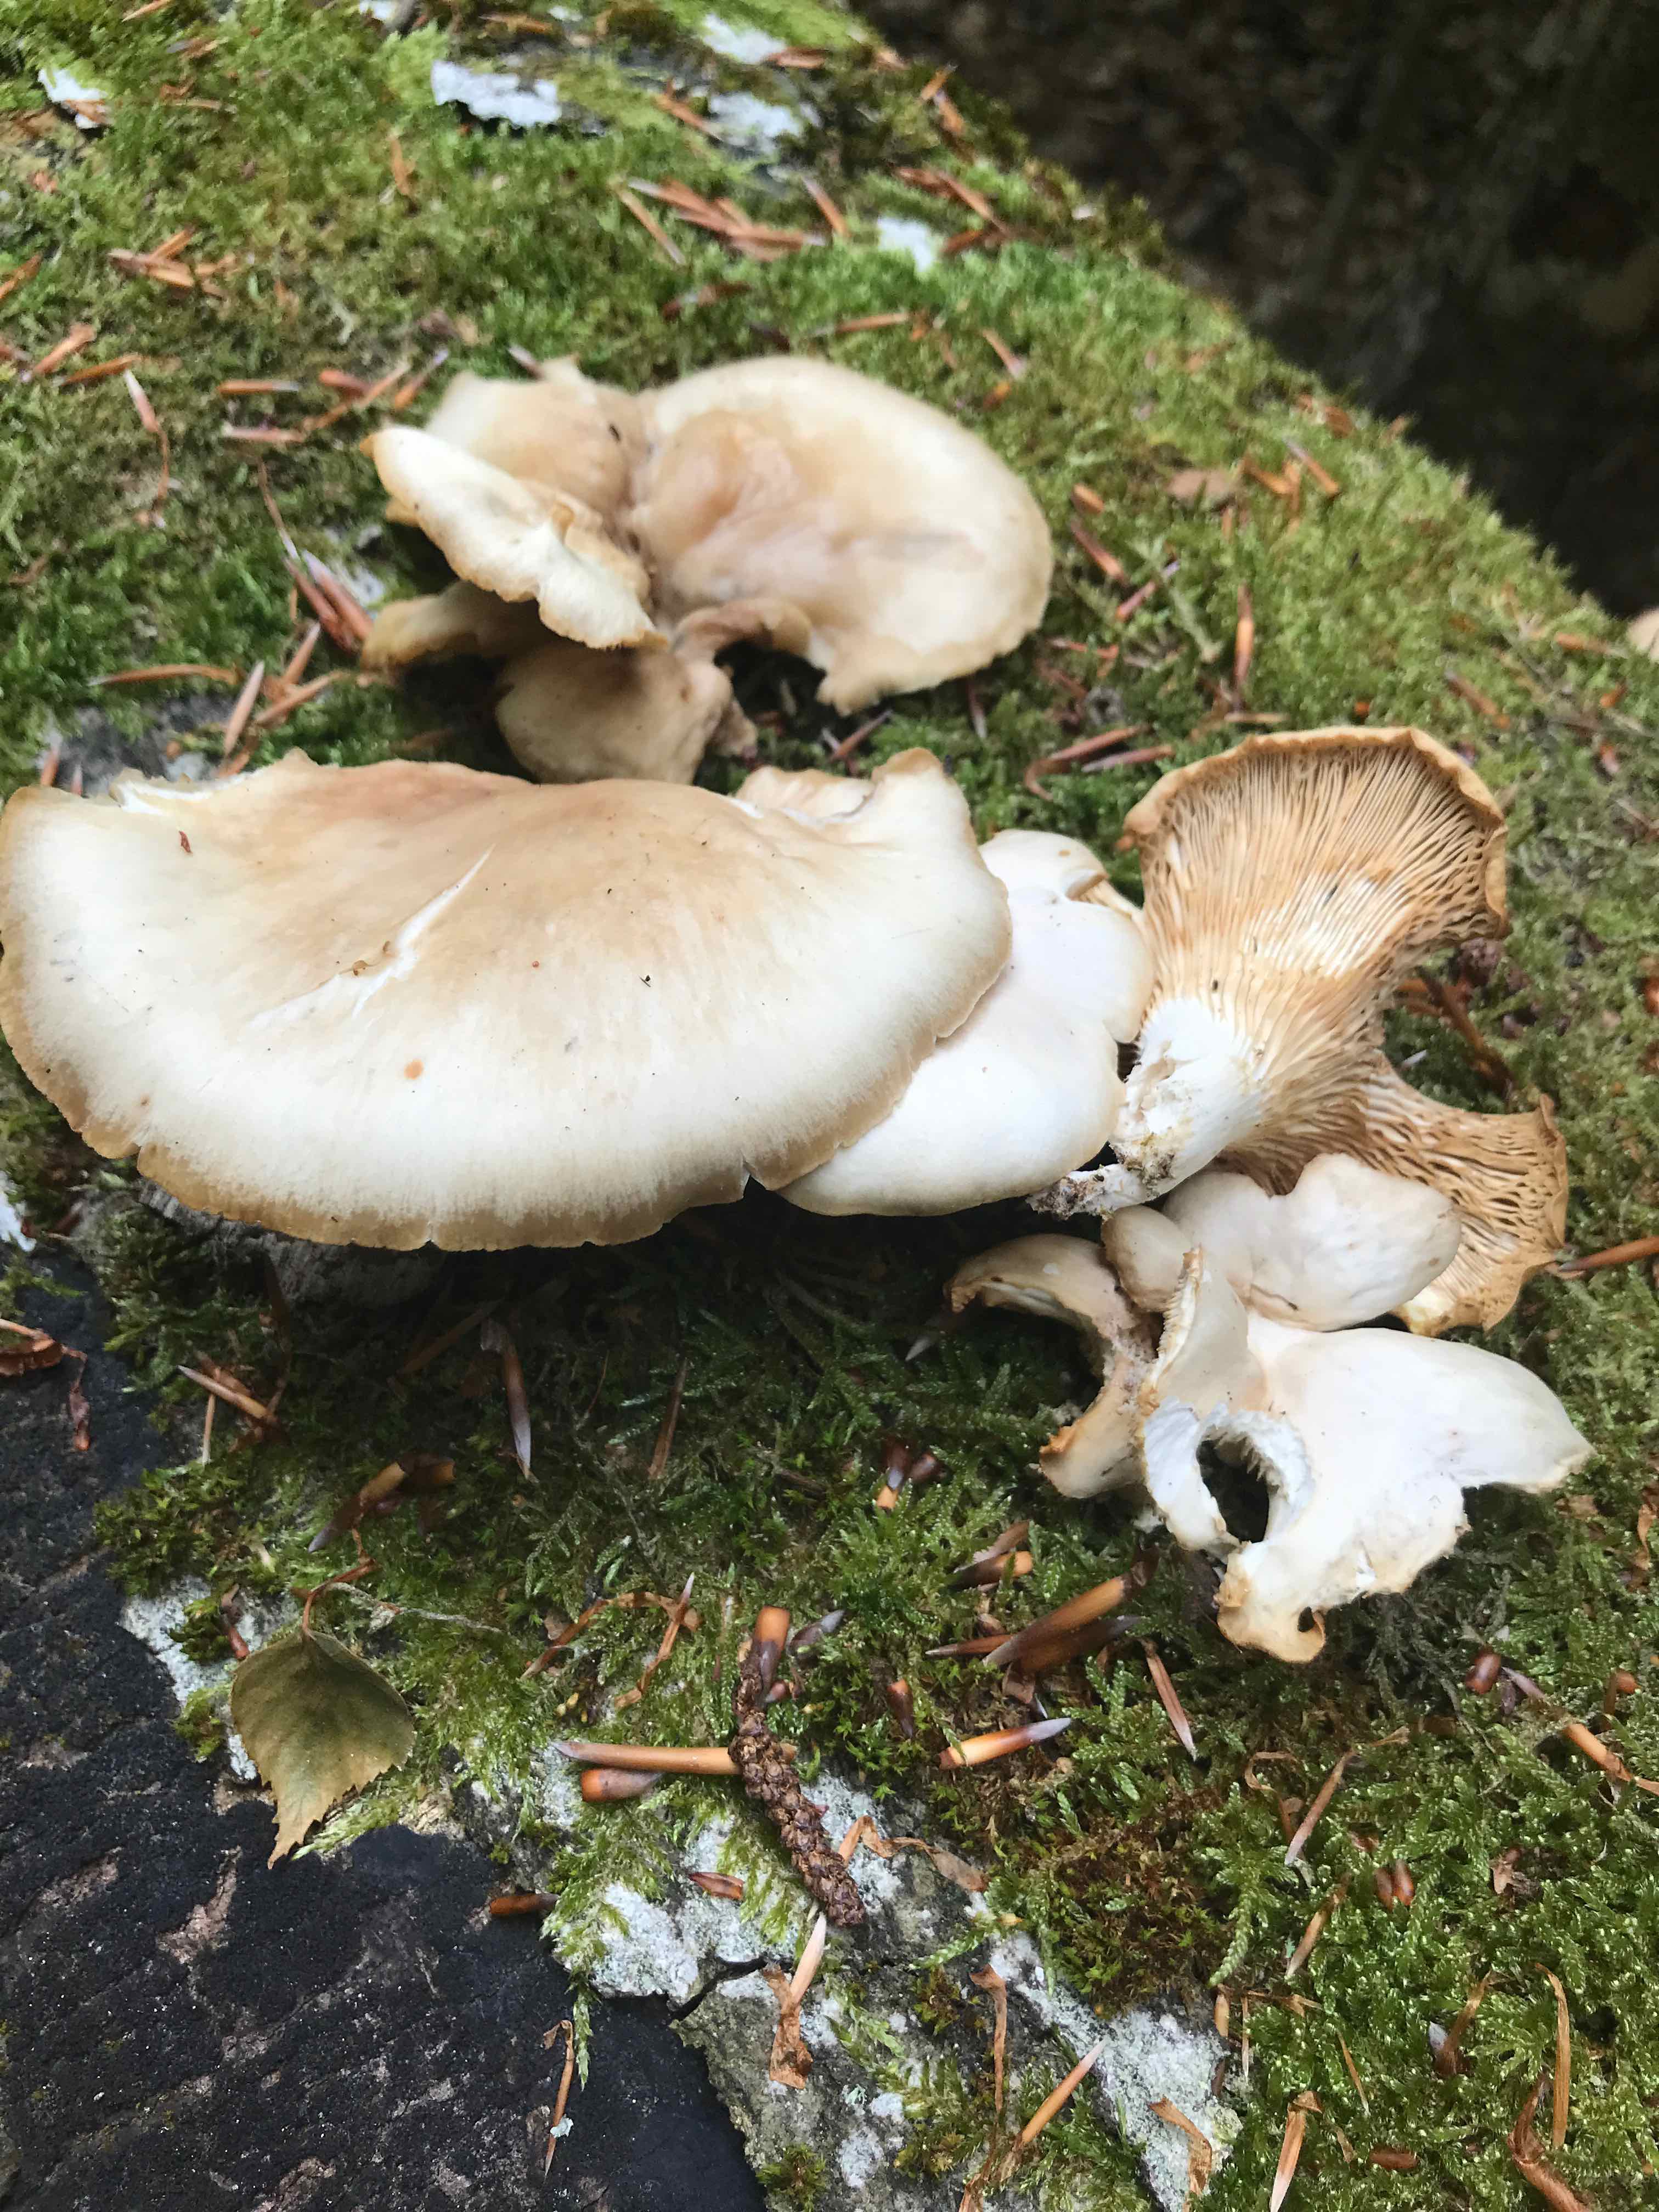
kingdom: Fungi
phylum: Basidiomycota
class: Agaricomycetes
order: Agaricales
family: Pleurotaceae
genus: Pleurotus
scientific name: Pleurotus pulmonarius
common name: sommer-østershat
